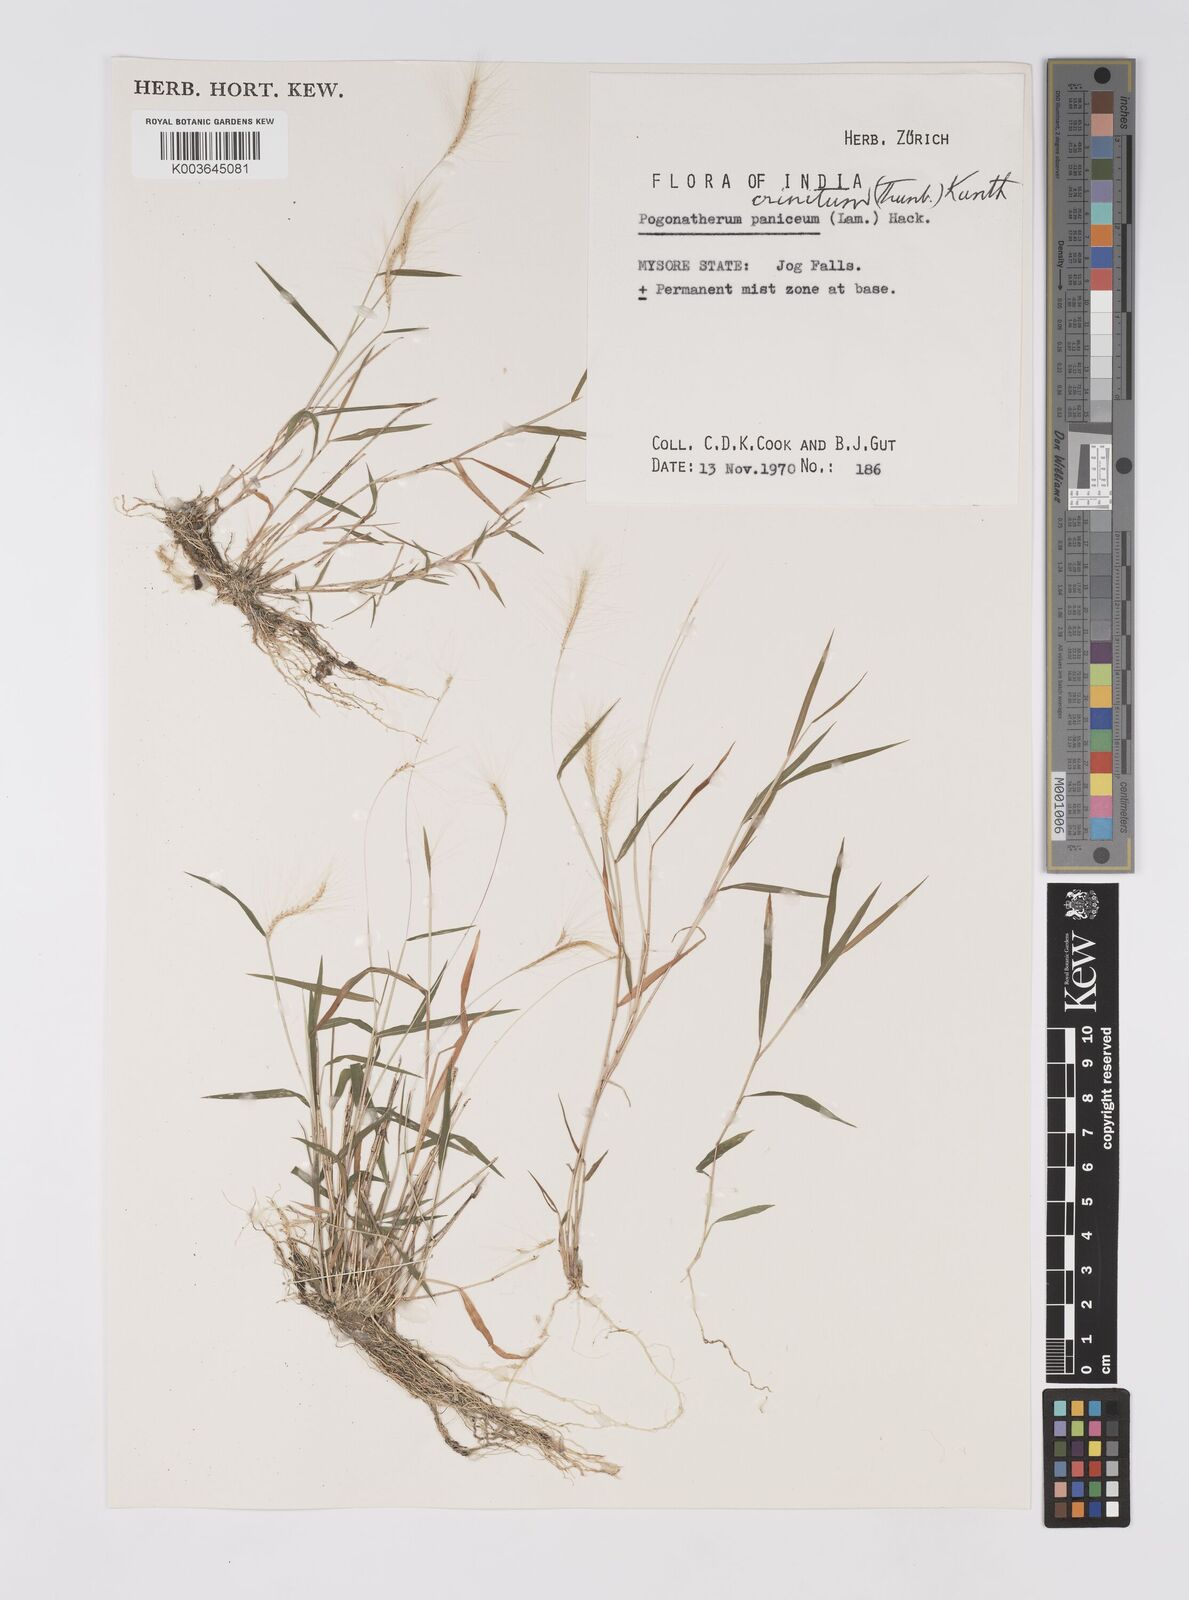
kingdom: Plantae
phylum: Tracheophyta
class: Liliopsida
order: Poales
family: Poaceae
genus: Pogonatherum
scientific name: Pogonatherum crinitum
